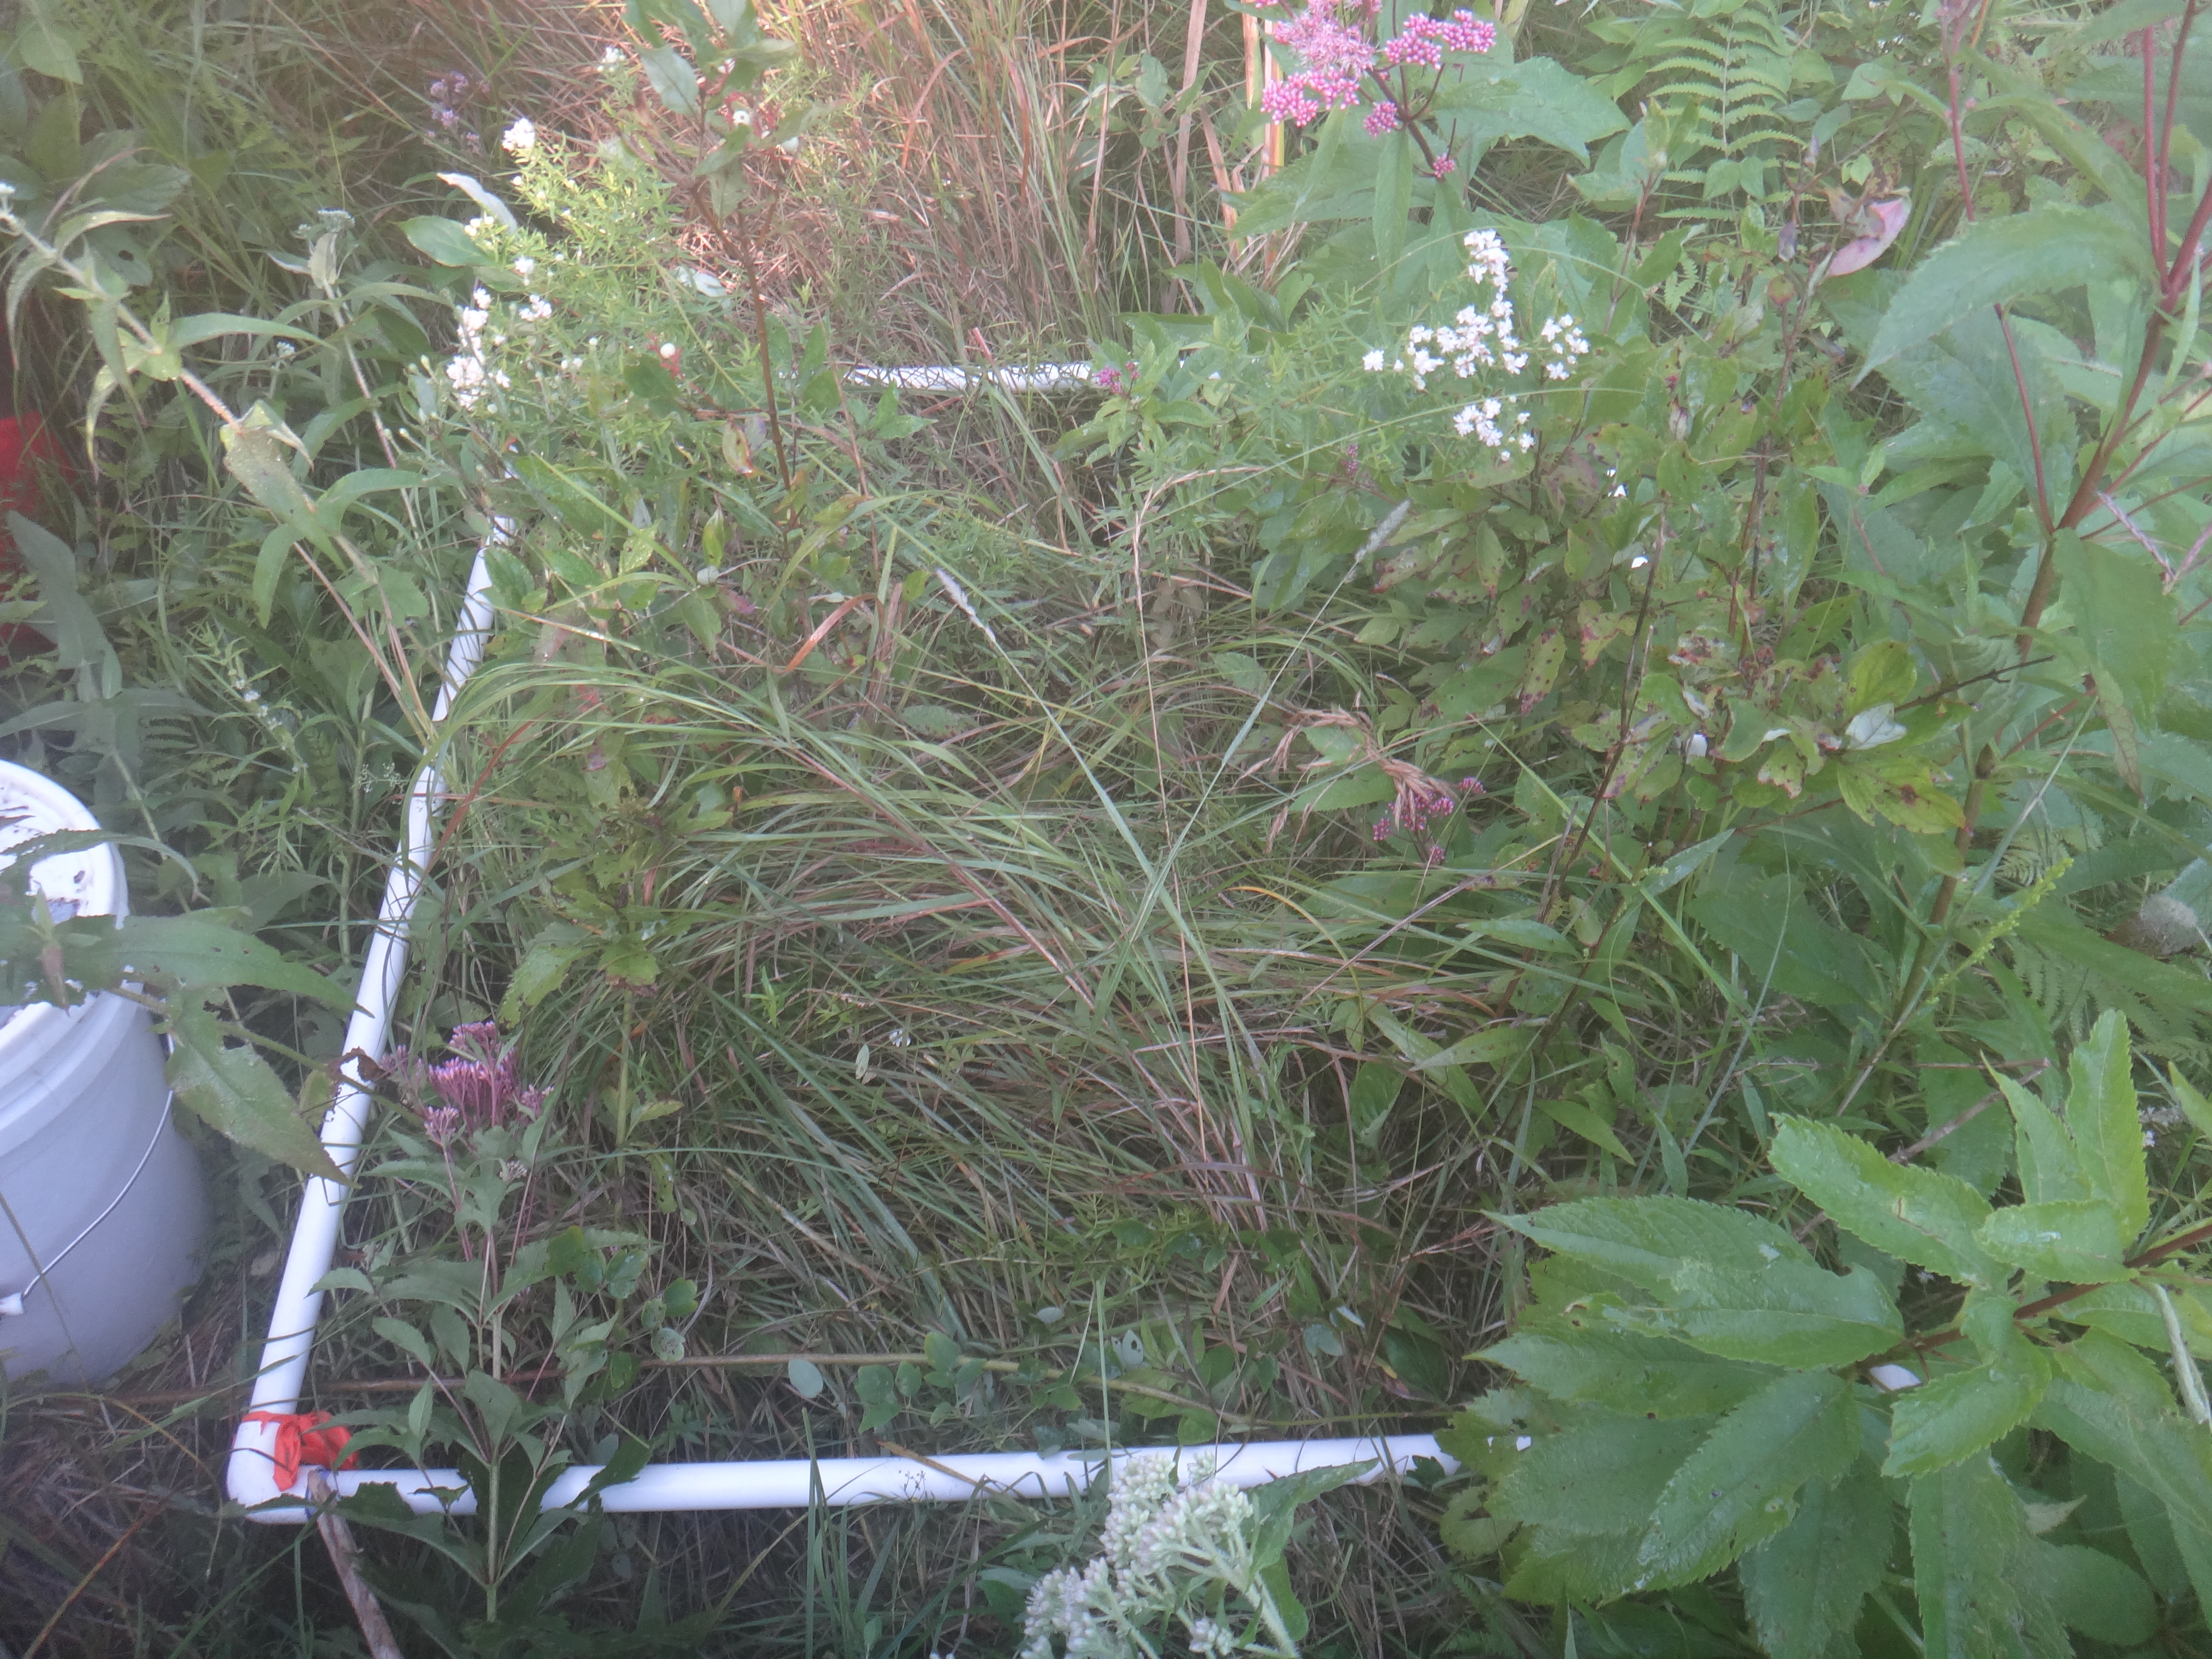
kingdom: Plantae
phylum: Tracheophyta
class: Magnoliopsida
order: Fabales
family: Fabaceae
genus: Apios
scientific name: Apios americana
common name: American potato-bean
